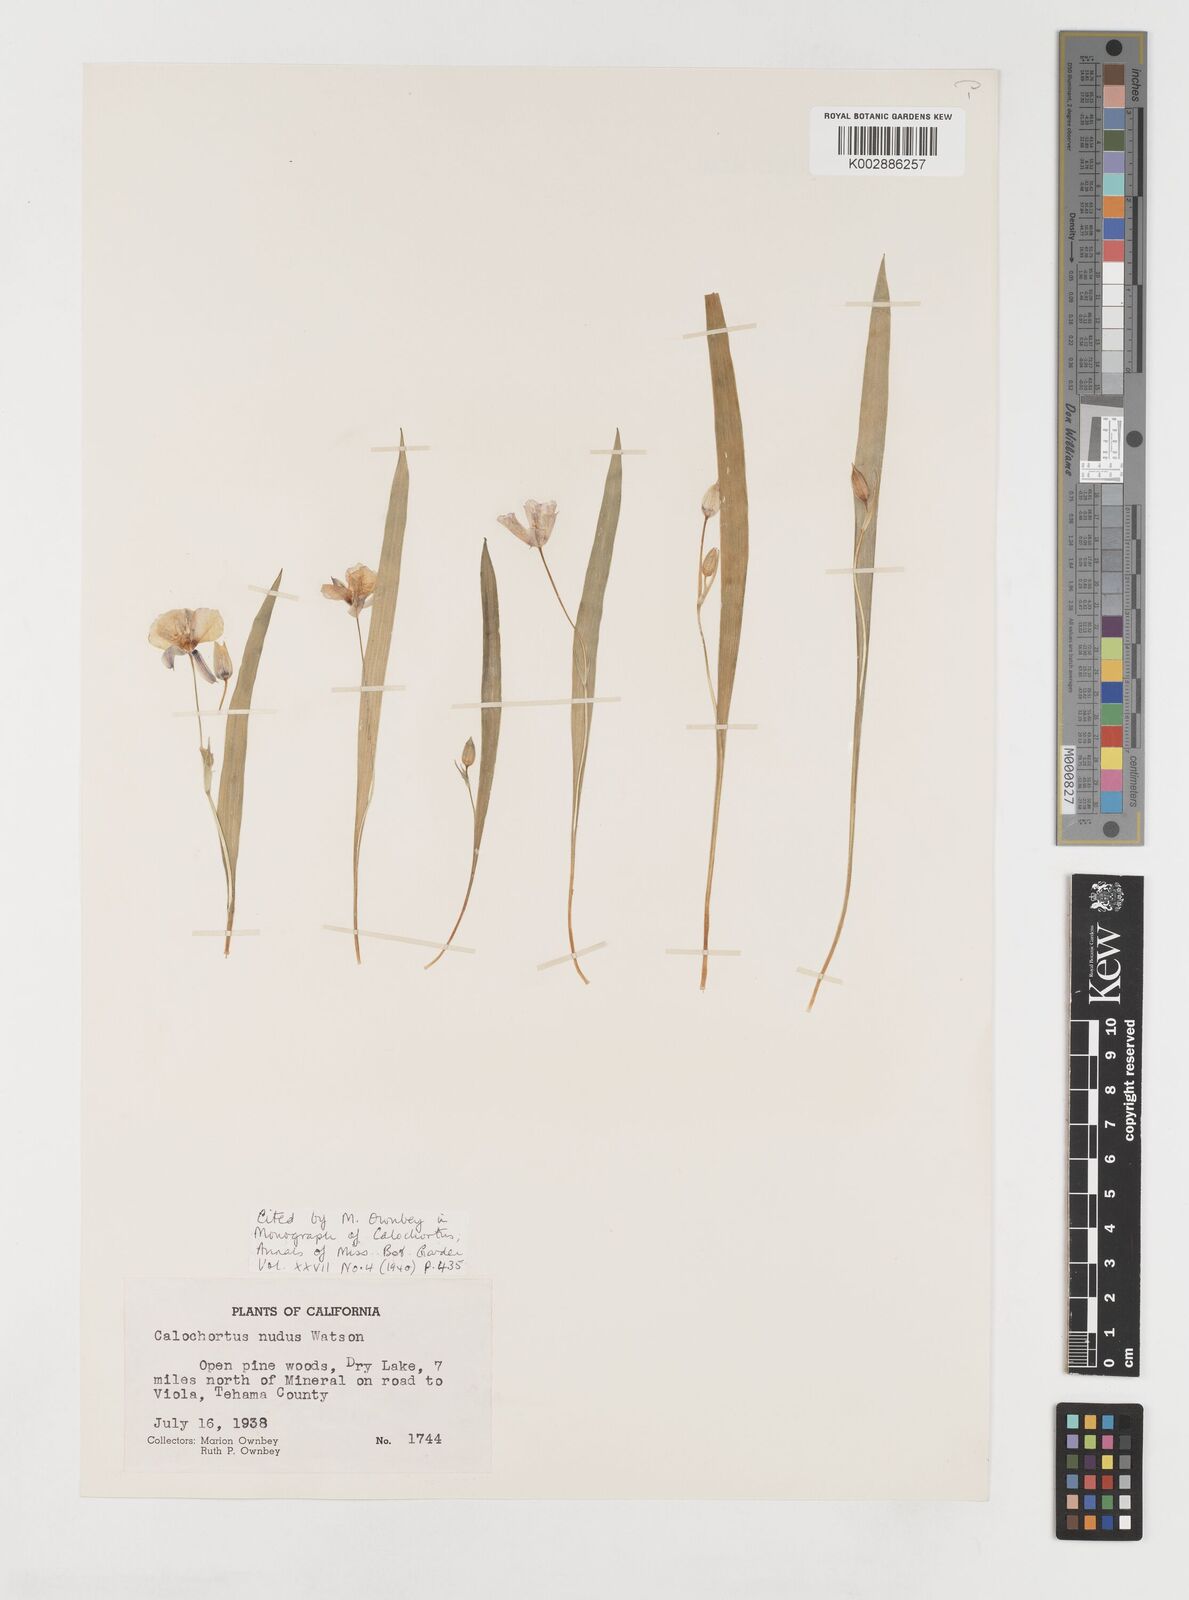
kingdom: Plantae
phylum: Tracheophyta
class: Liliopsida
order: Liliales
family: Liliaceae
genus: Calochortus
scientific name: Calochortus nudus
